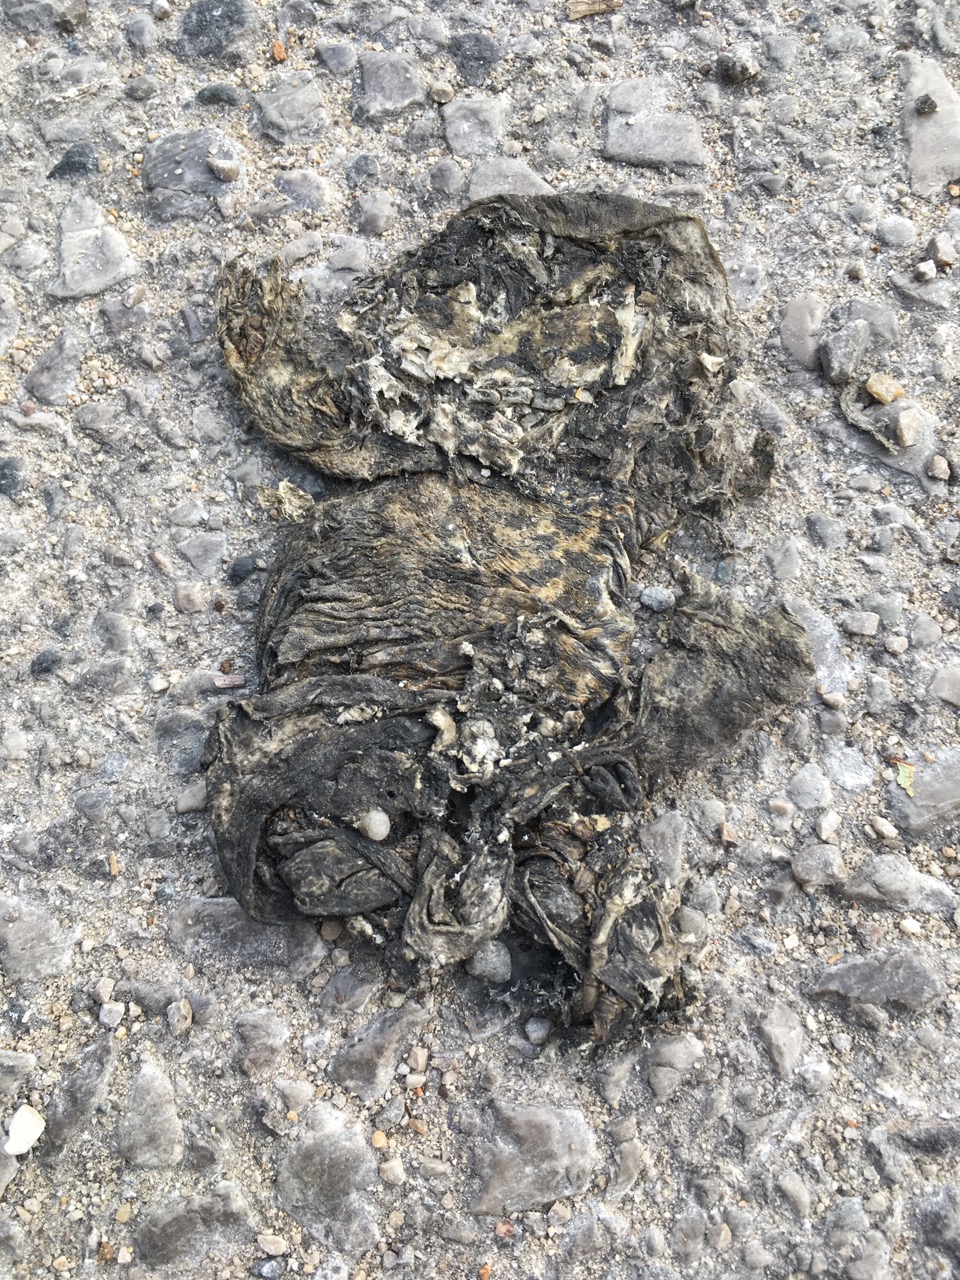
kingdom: Animalia
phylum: Chordata
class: Amphibia
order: Anura
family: Bufonidae
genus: Bufo
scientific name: Bufo bufo
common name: Common toad
